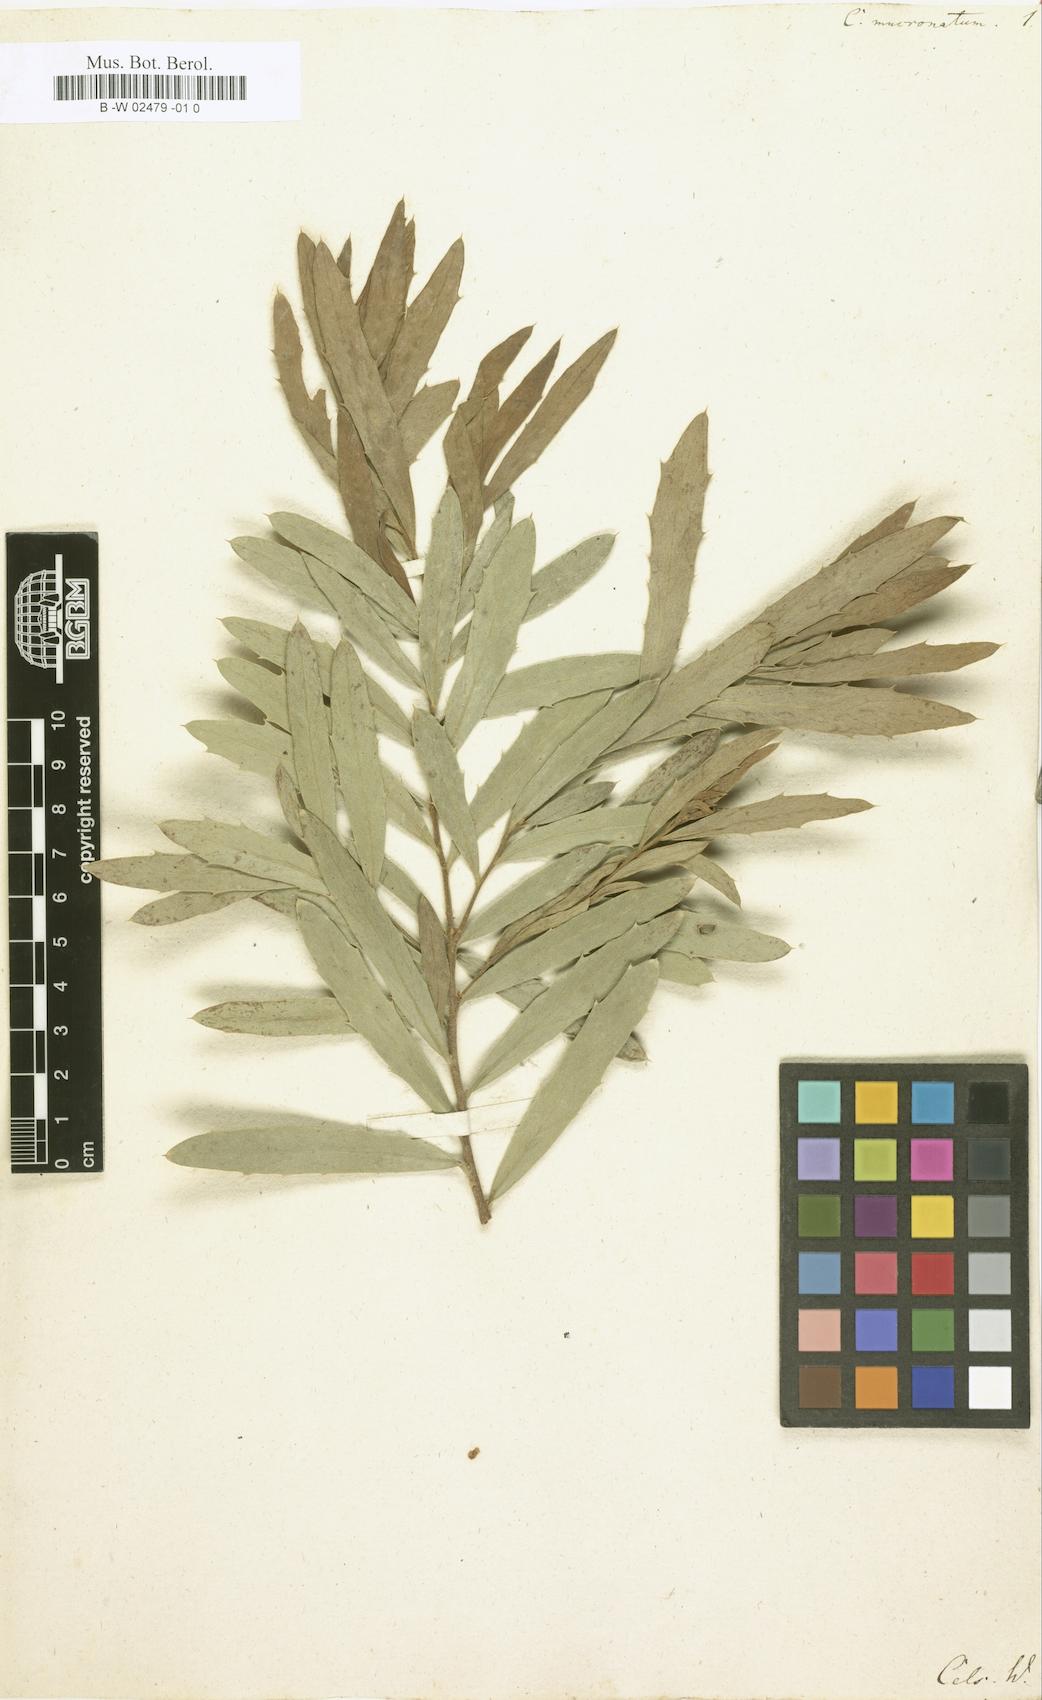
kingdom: Plantae
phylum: Tracheophyta
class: Magnoliopsida
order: Proteales
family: Proteaceae
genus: Hakea
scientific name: Hakea varia
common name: Variable-leaf hakea
